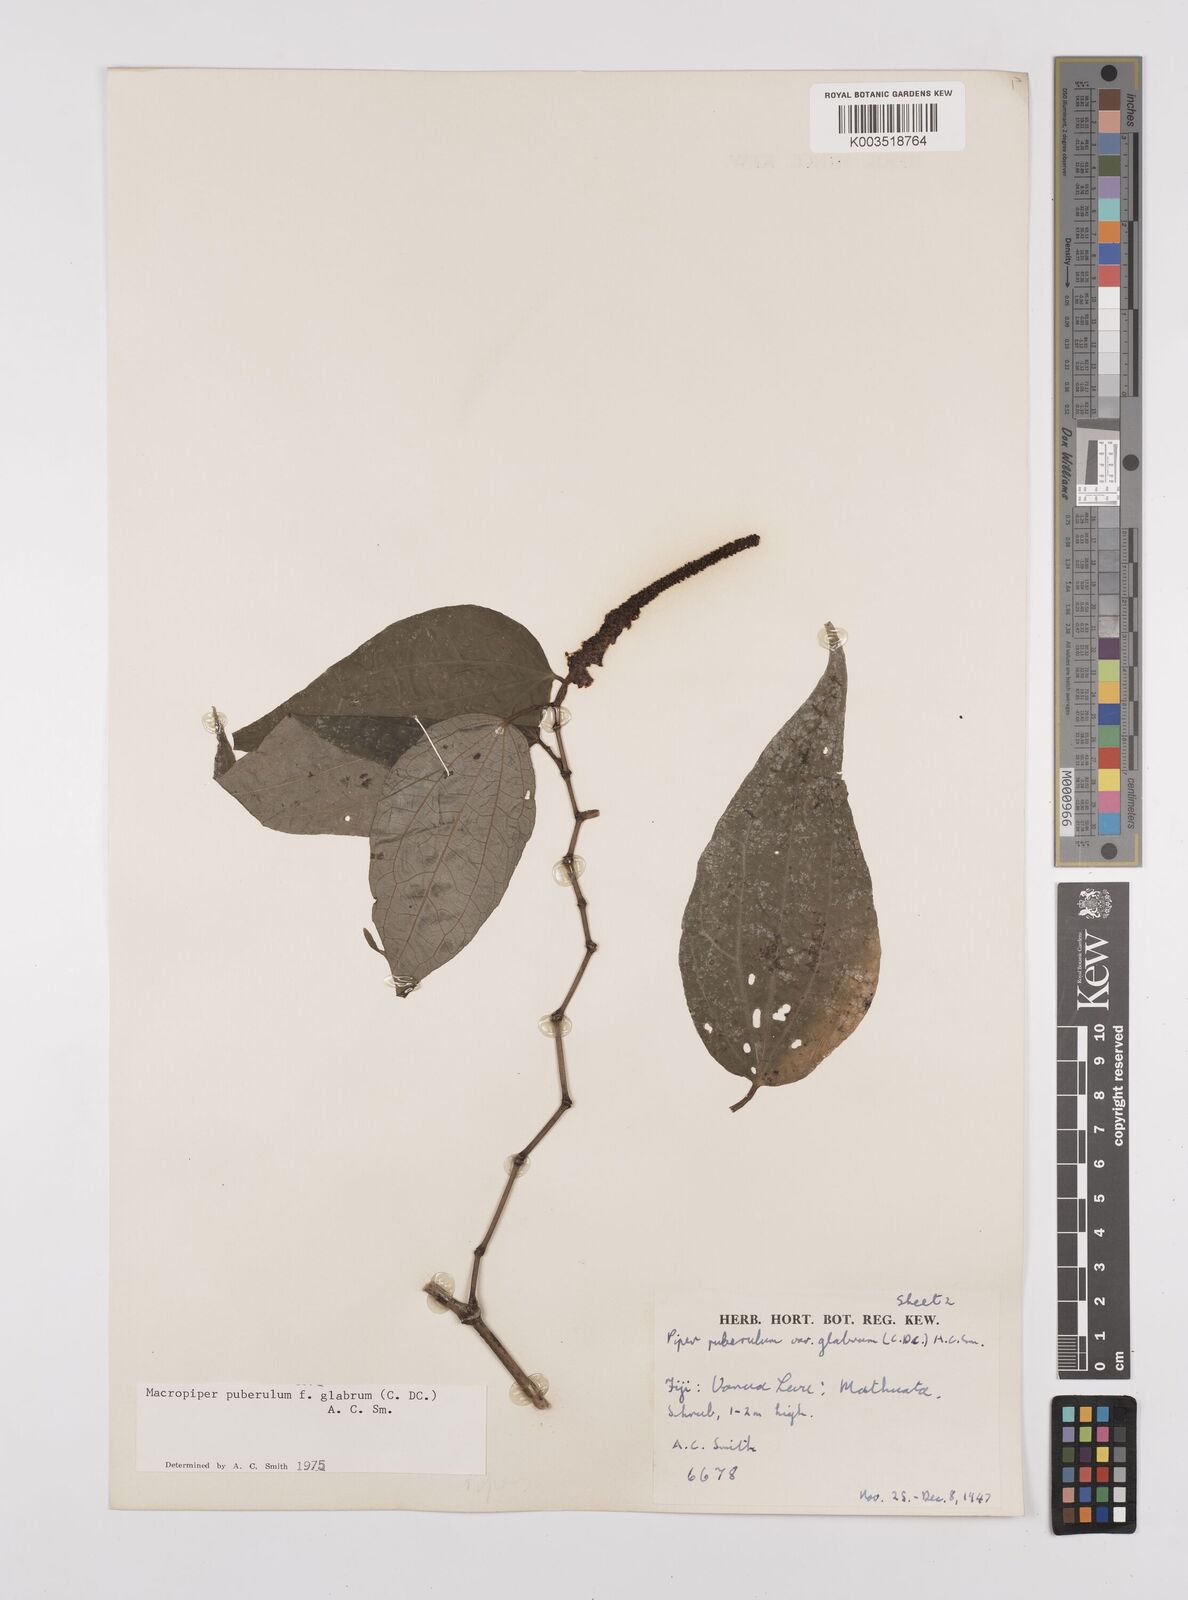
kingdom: Plantae
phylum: Tracheophyta
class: Magnoliopsida
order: Piperales
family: Piperaceae
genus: Macropiper
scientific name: Macropiper puberulum
